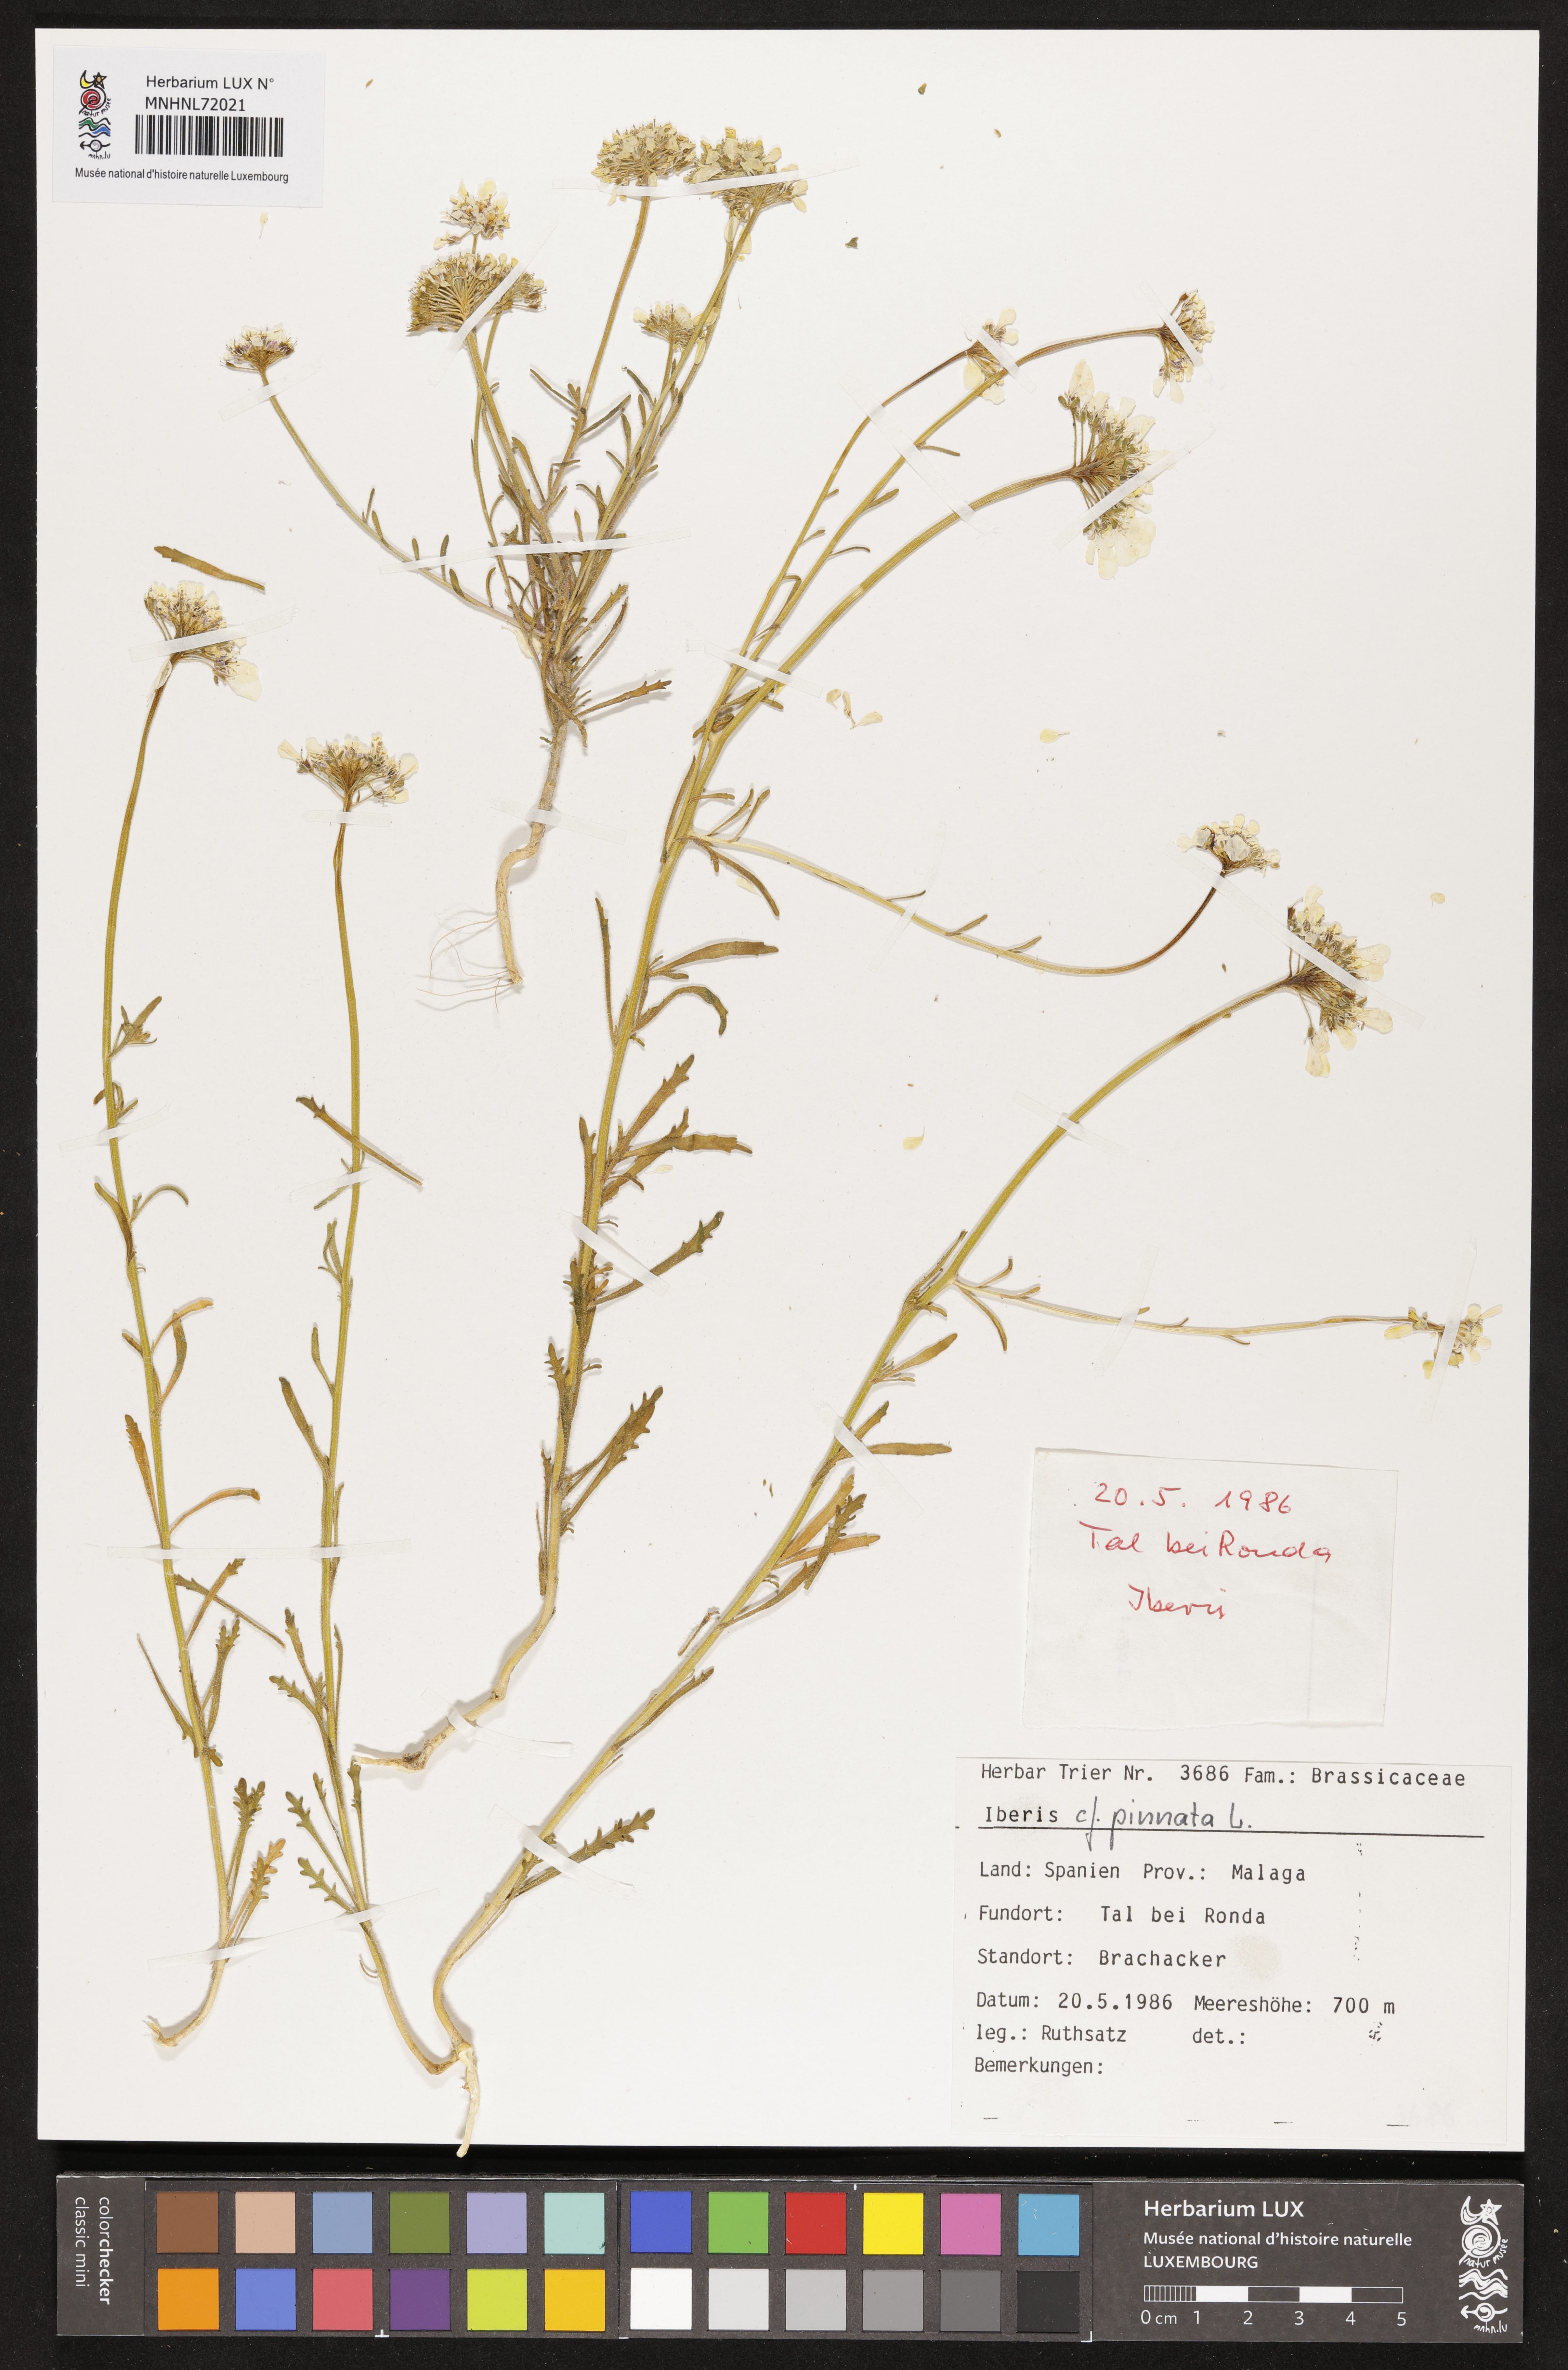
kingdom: Plantae
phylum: Tracheophyta
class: Magnoliopsida
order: Brassicales
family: Brassicaceae
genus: Iberis
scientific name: Iberis pinnata
